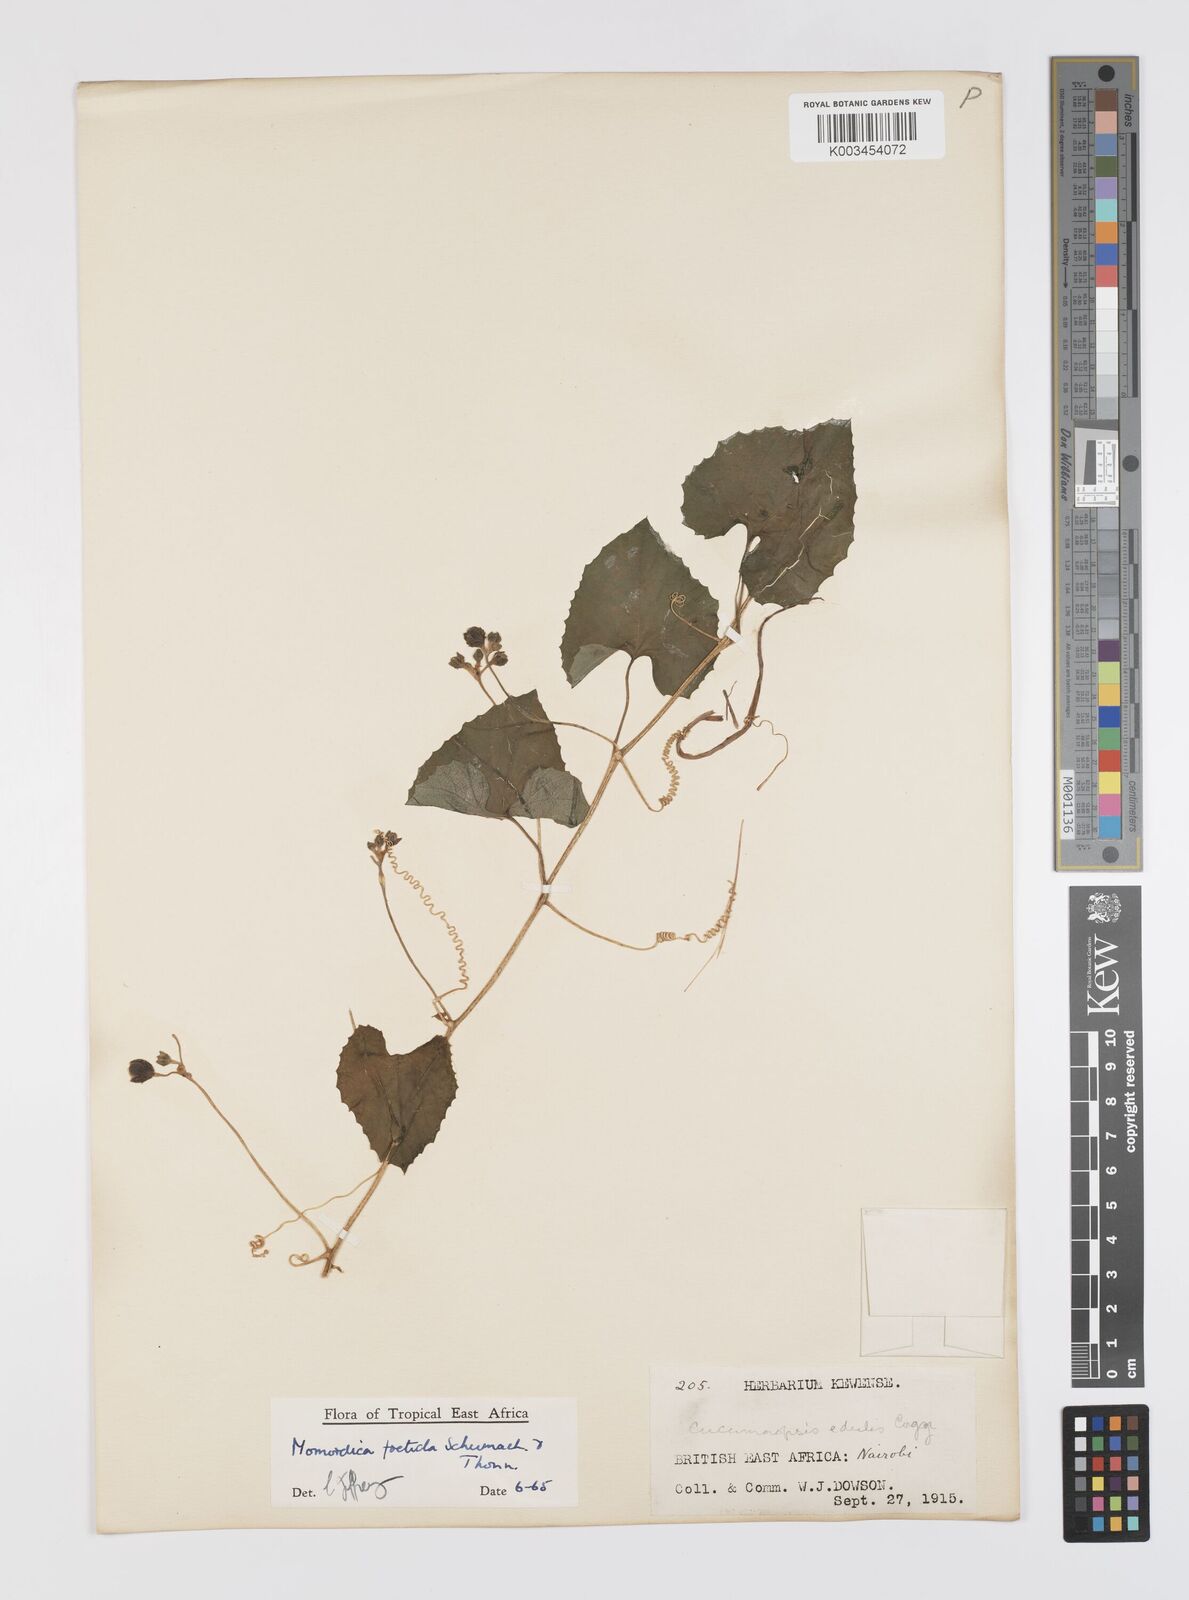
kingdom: Plantae
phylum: Tracheophyta
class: Magnoliopsida
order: Cucurbitales
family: Cucurbitaceae
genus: Momordica
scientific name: Momordica foetida
